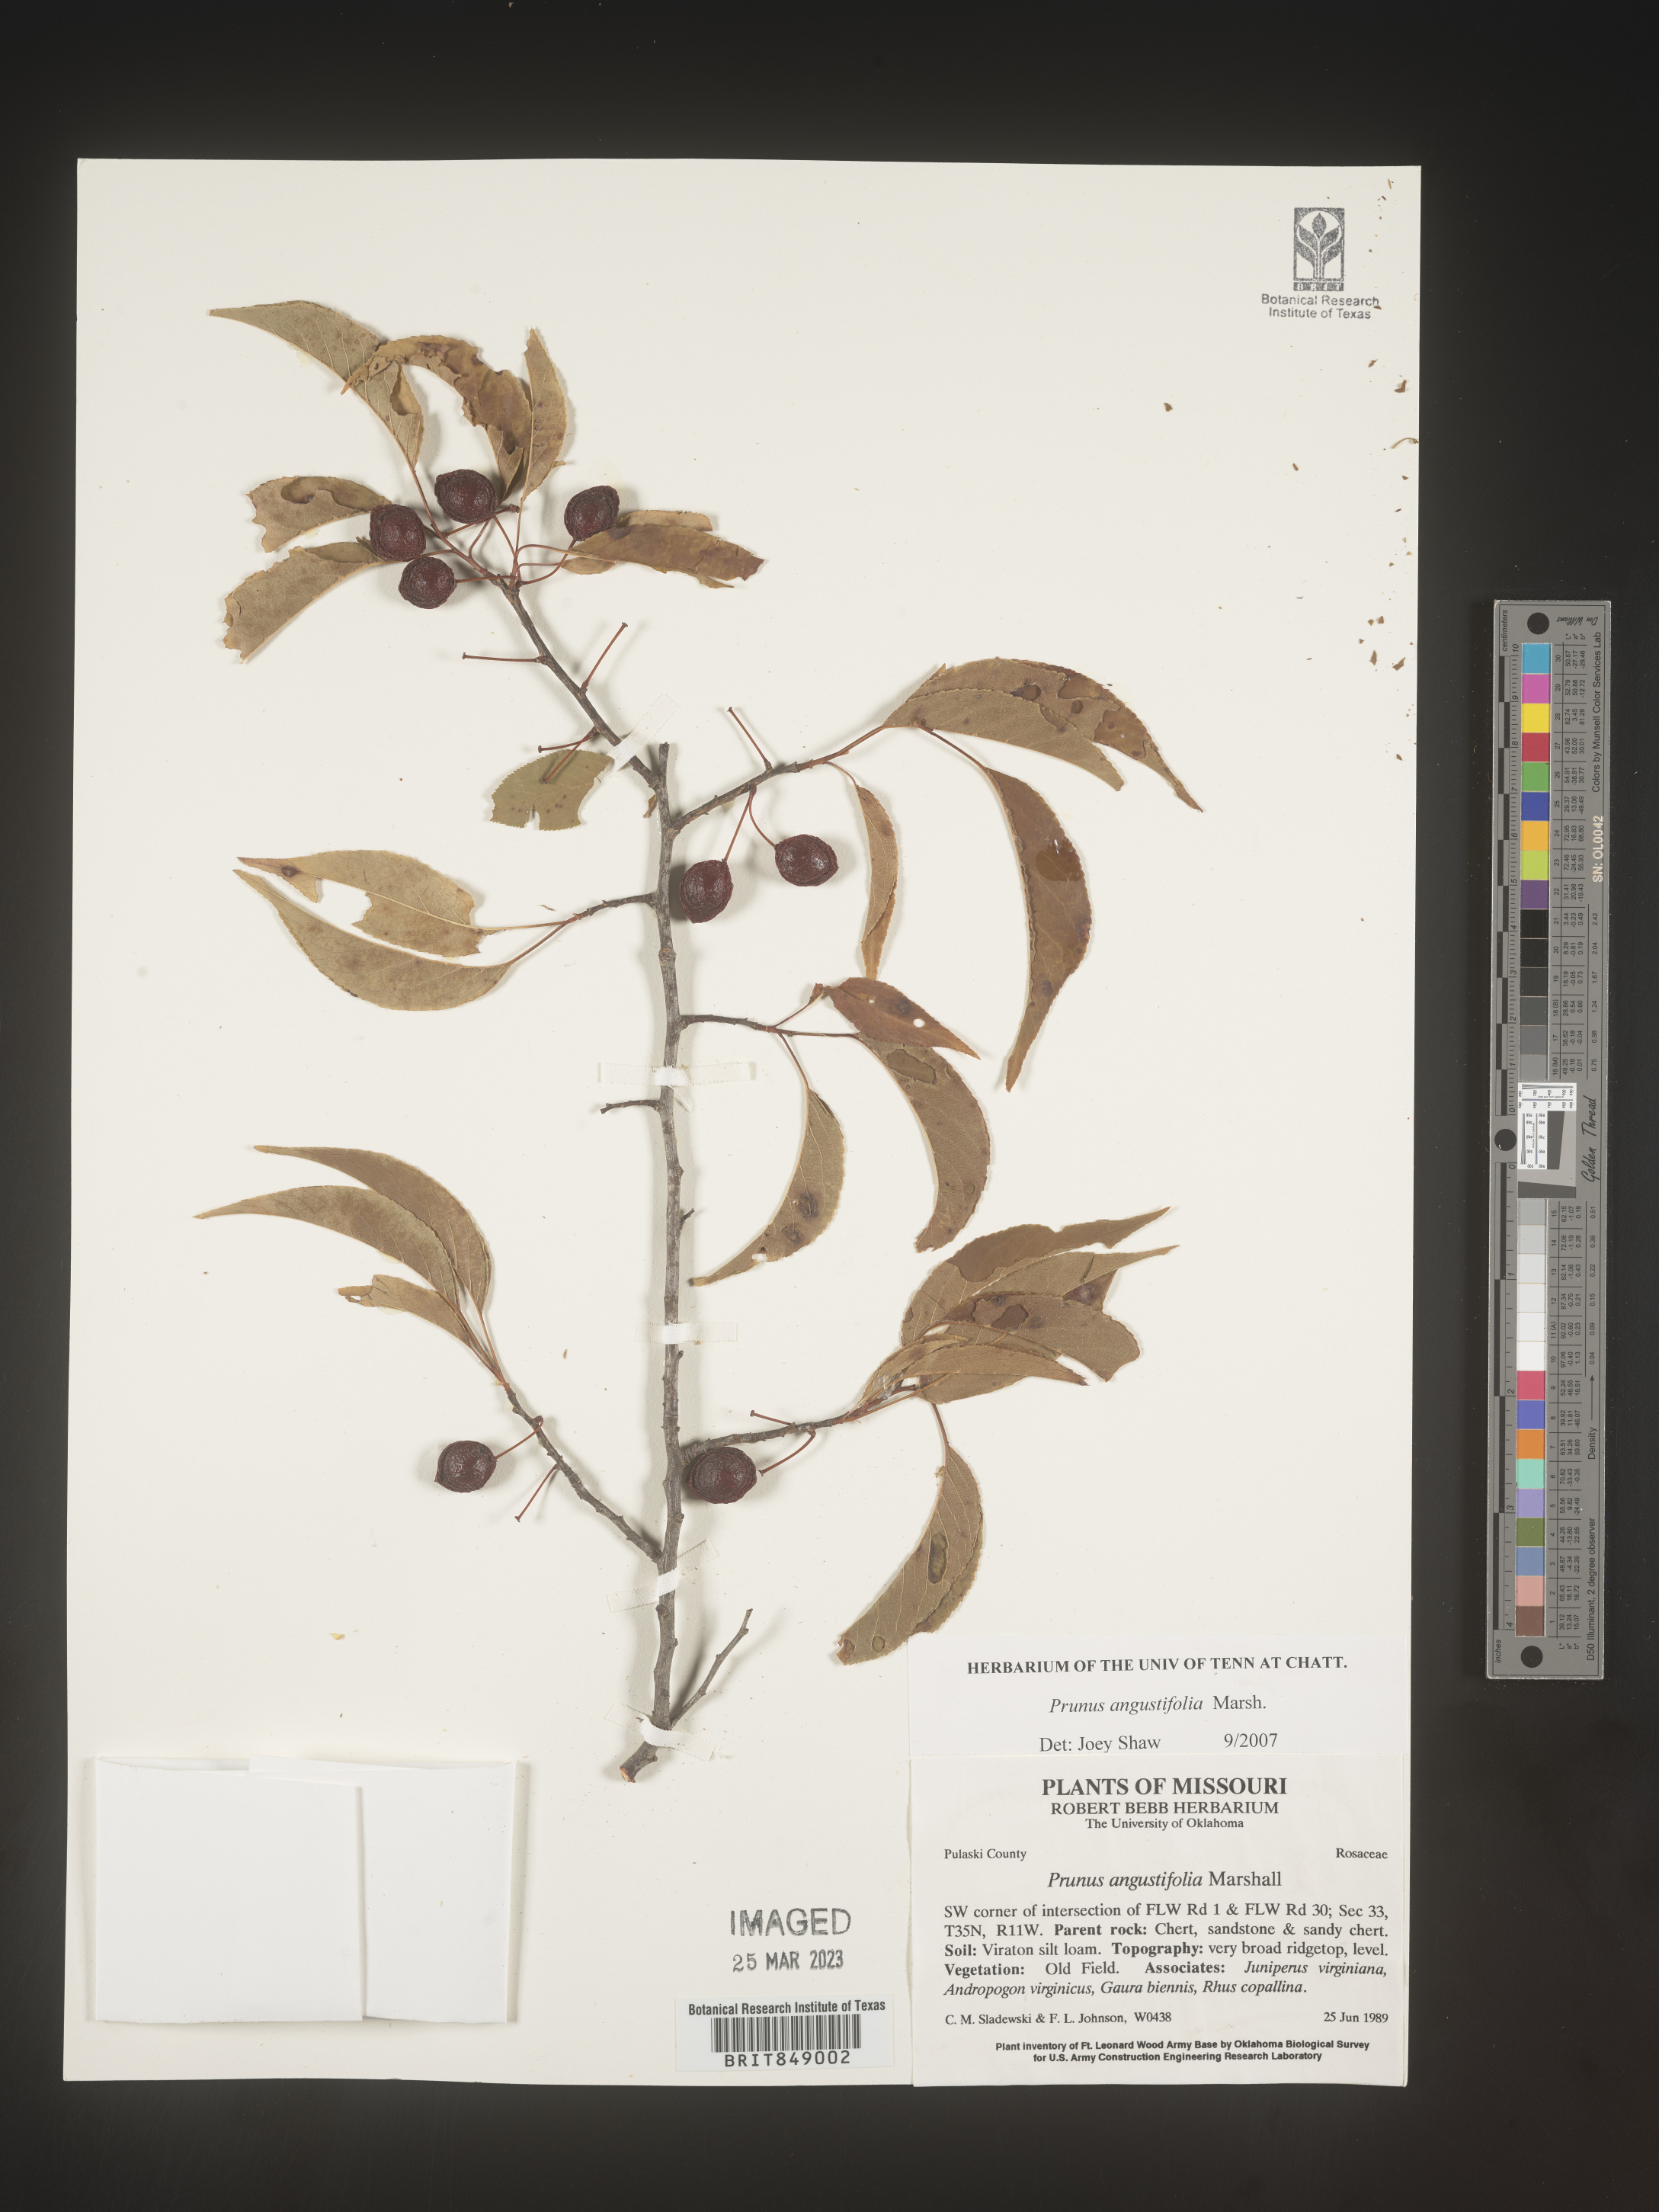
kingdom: Plantae
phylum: Tracheophyta
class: Magnoliopsida
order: Rosales
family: Rosaceae
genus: Prunus
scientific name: Prunus angustifolia
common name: Cherokee plum
